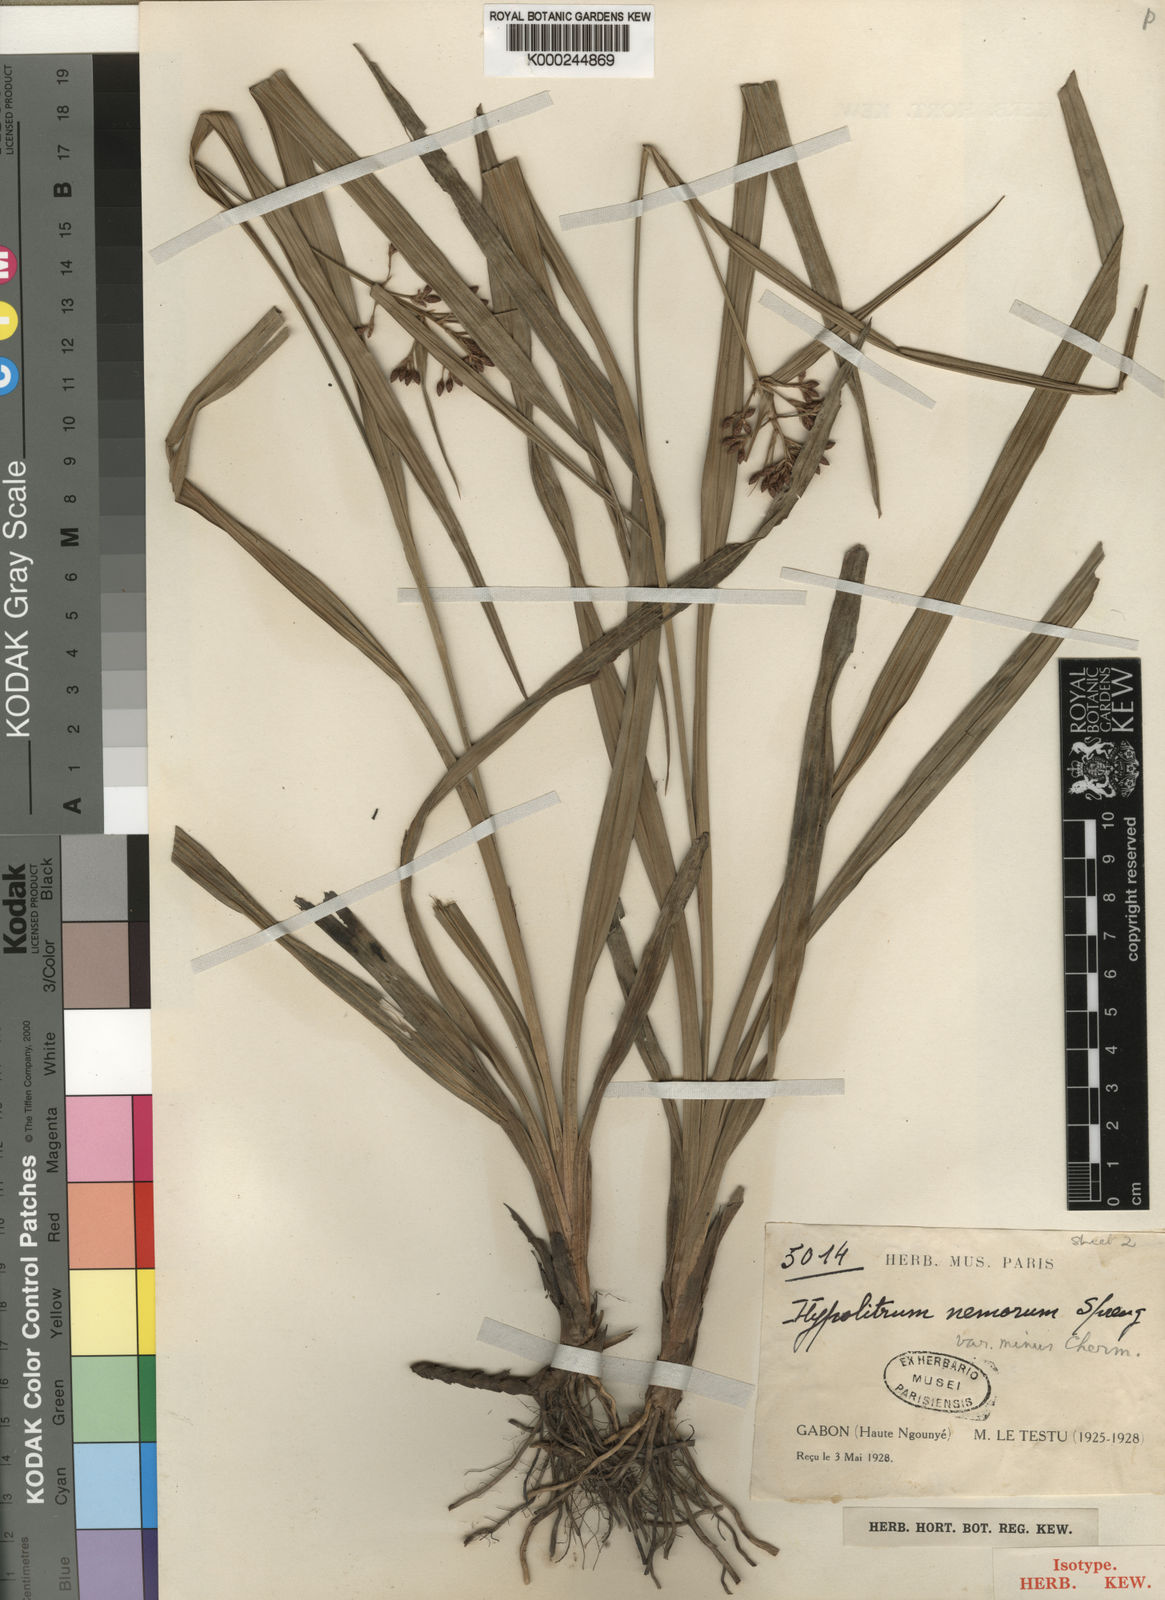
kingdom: Plantae
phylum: Tracheophyta
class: Liliopsida
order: Poales
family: Cyperaceae
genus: Hypolytrum
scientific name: Hypolytrum heterophyllum
